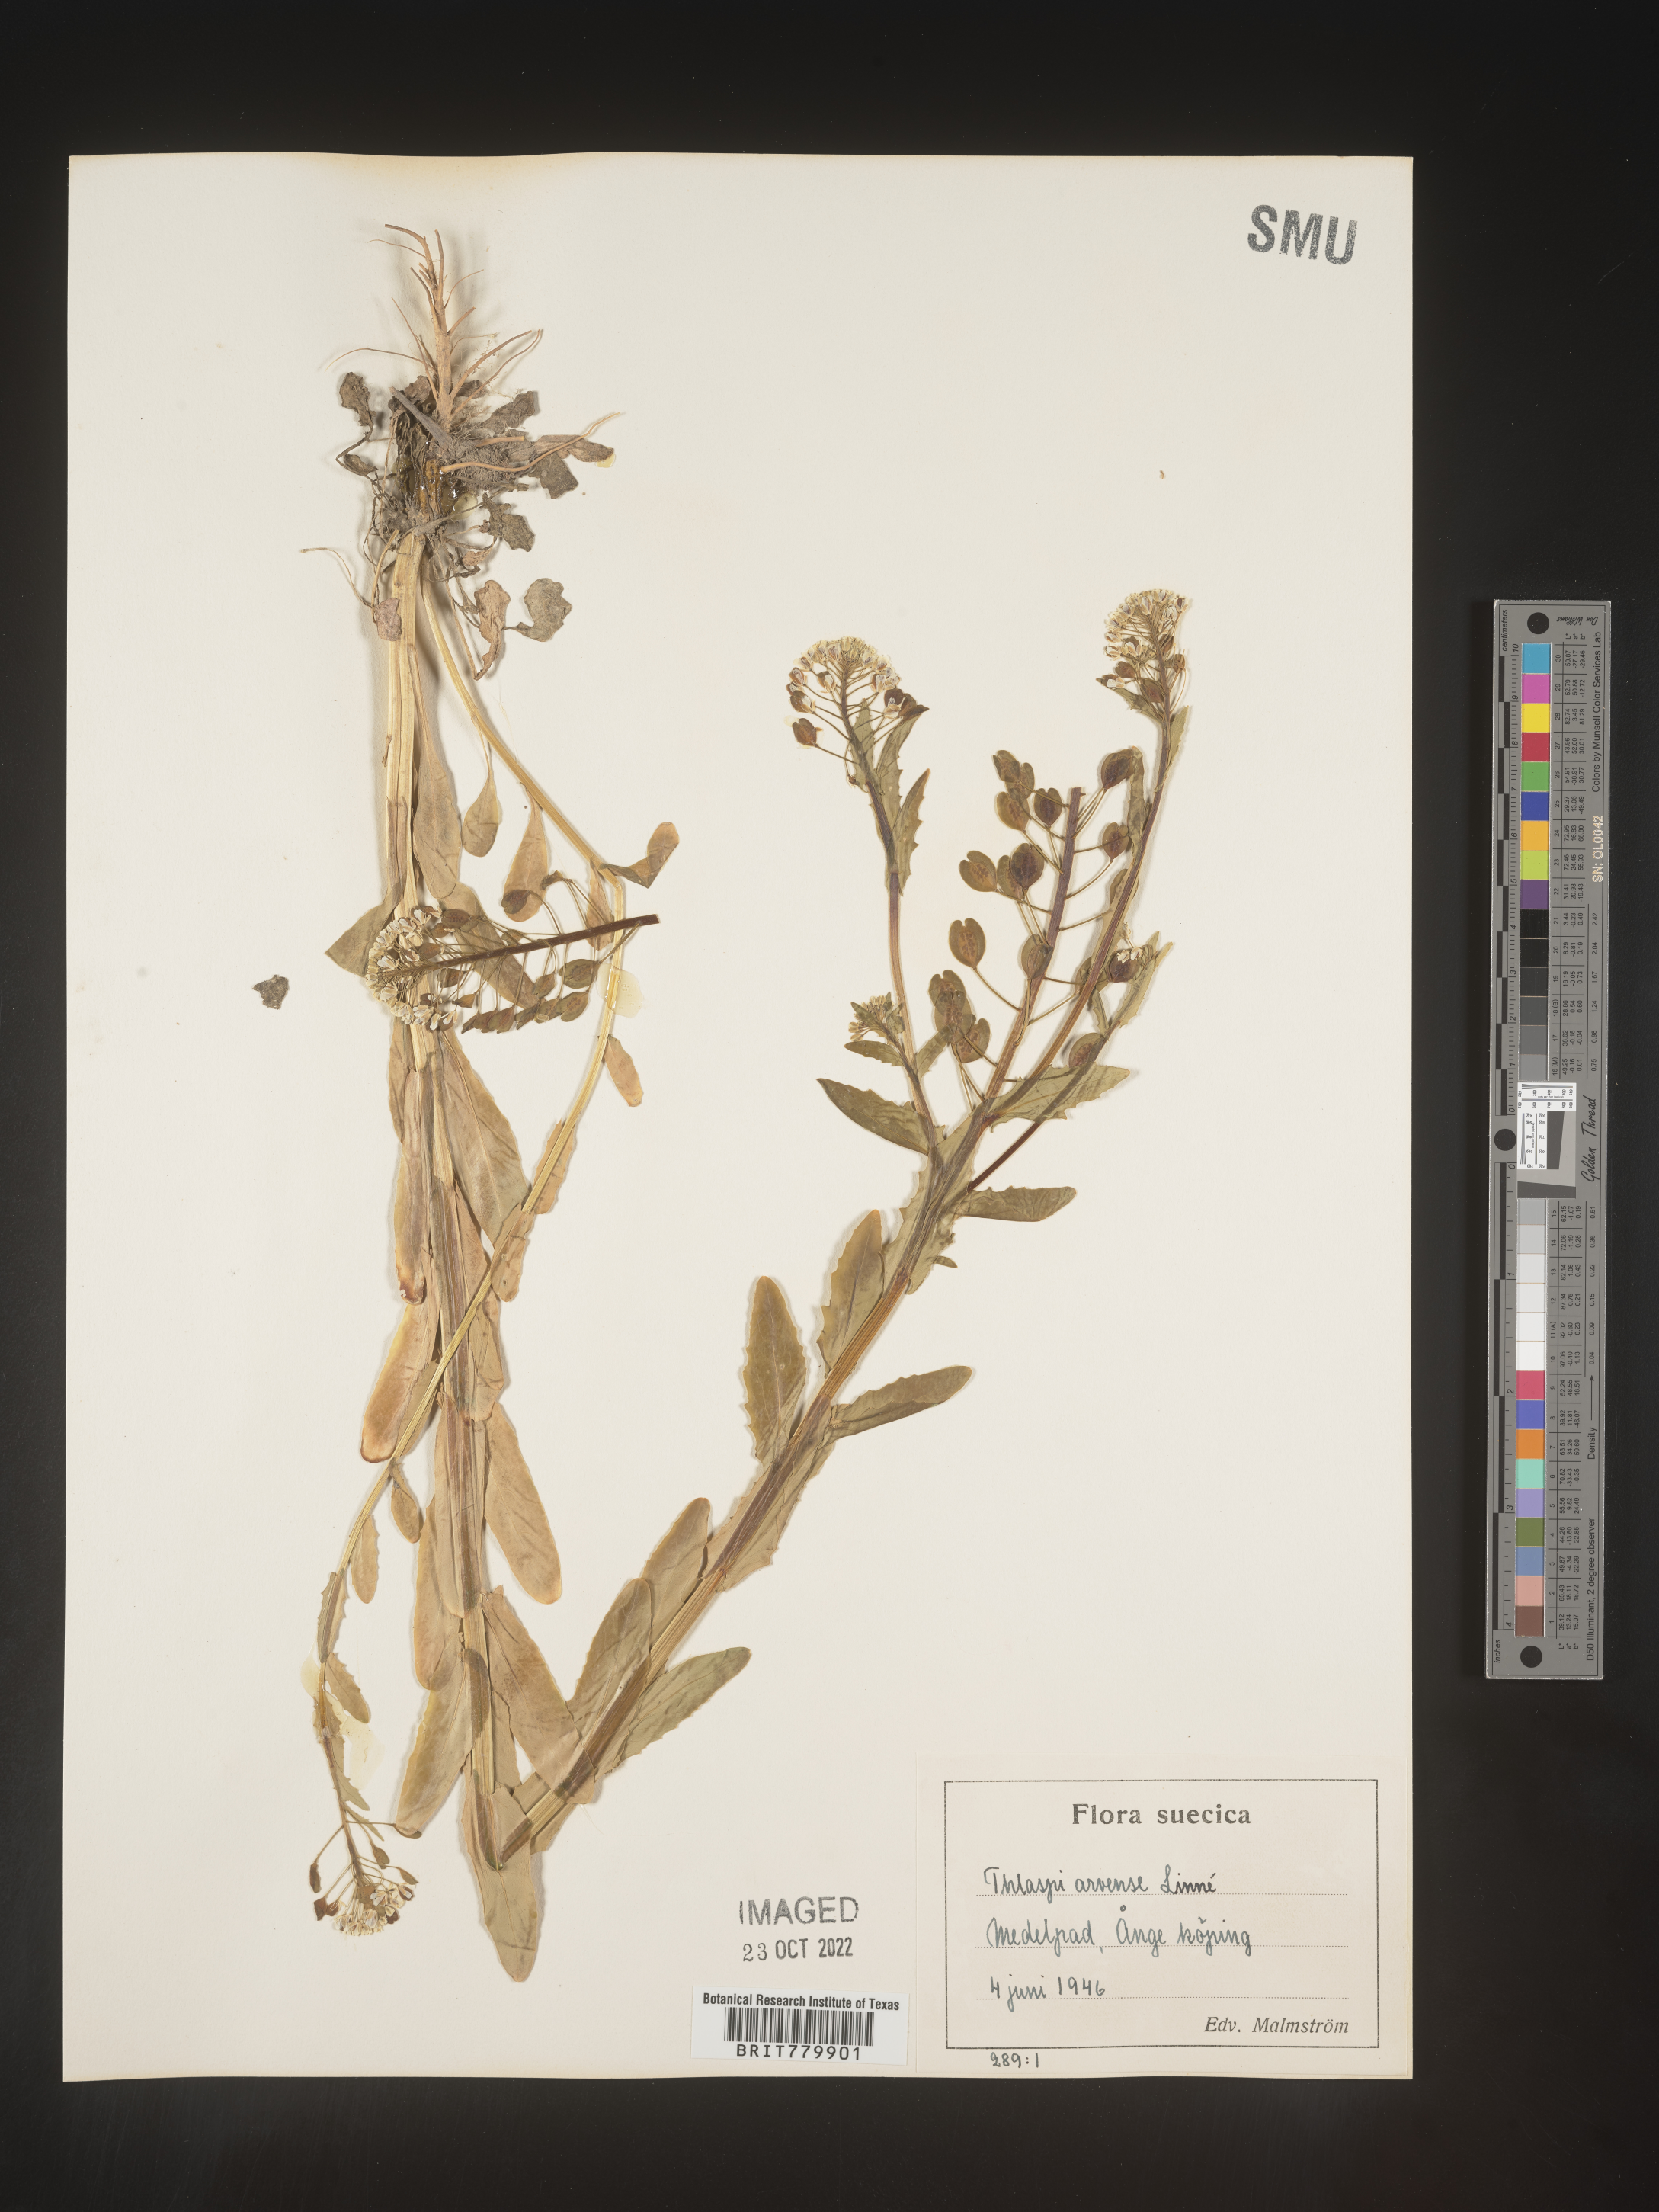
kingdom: Plantae
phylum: Tracheophyta
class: Magnoliopsida
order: Brassicales
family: Brassicaceae
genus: Thlaspi
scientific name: Thlaspi
